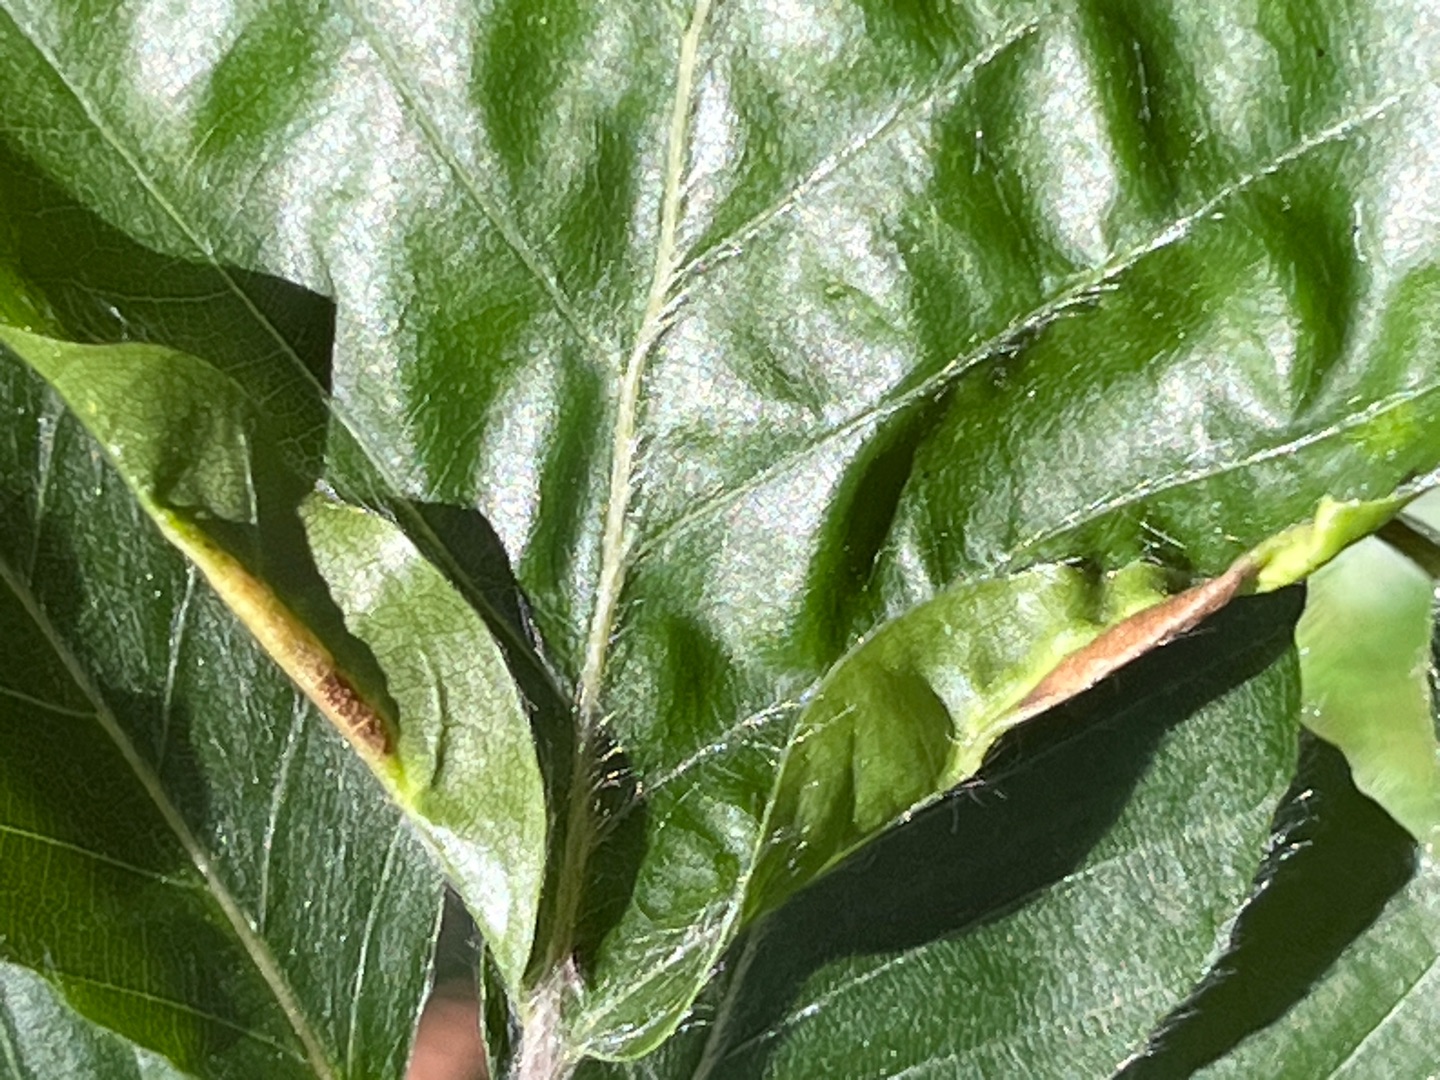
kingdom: Animalia
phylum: Arthropoda
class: Insecta
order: Diptera
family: Cecidomyiidae
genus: Phegomyia
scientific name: Phegomyia fagicola
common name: Bøgefoldegalmyg
